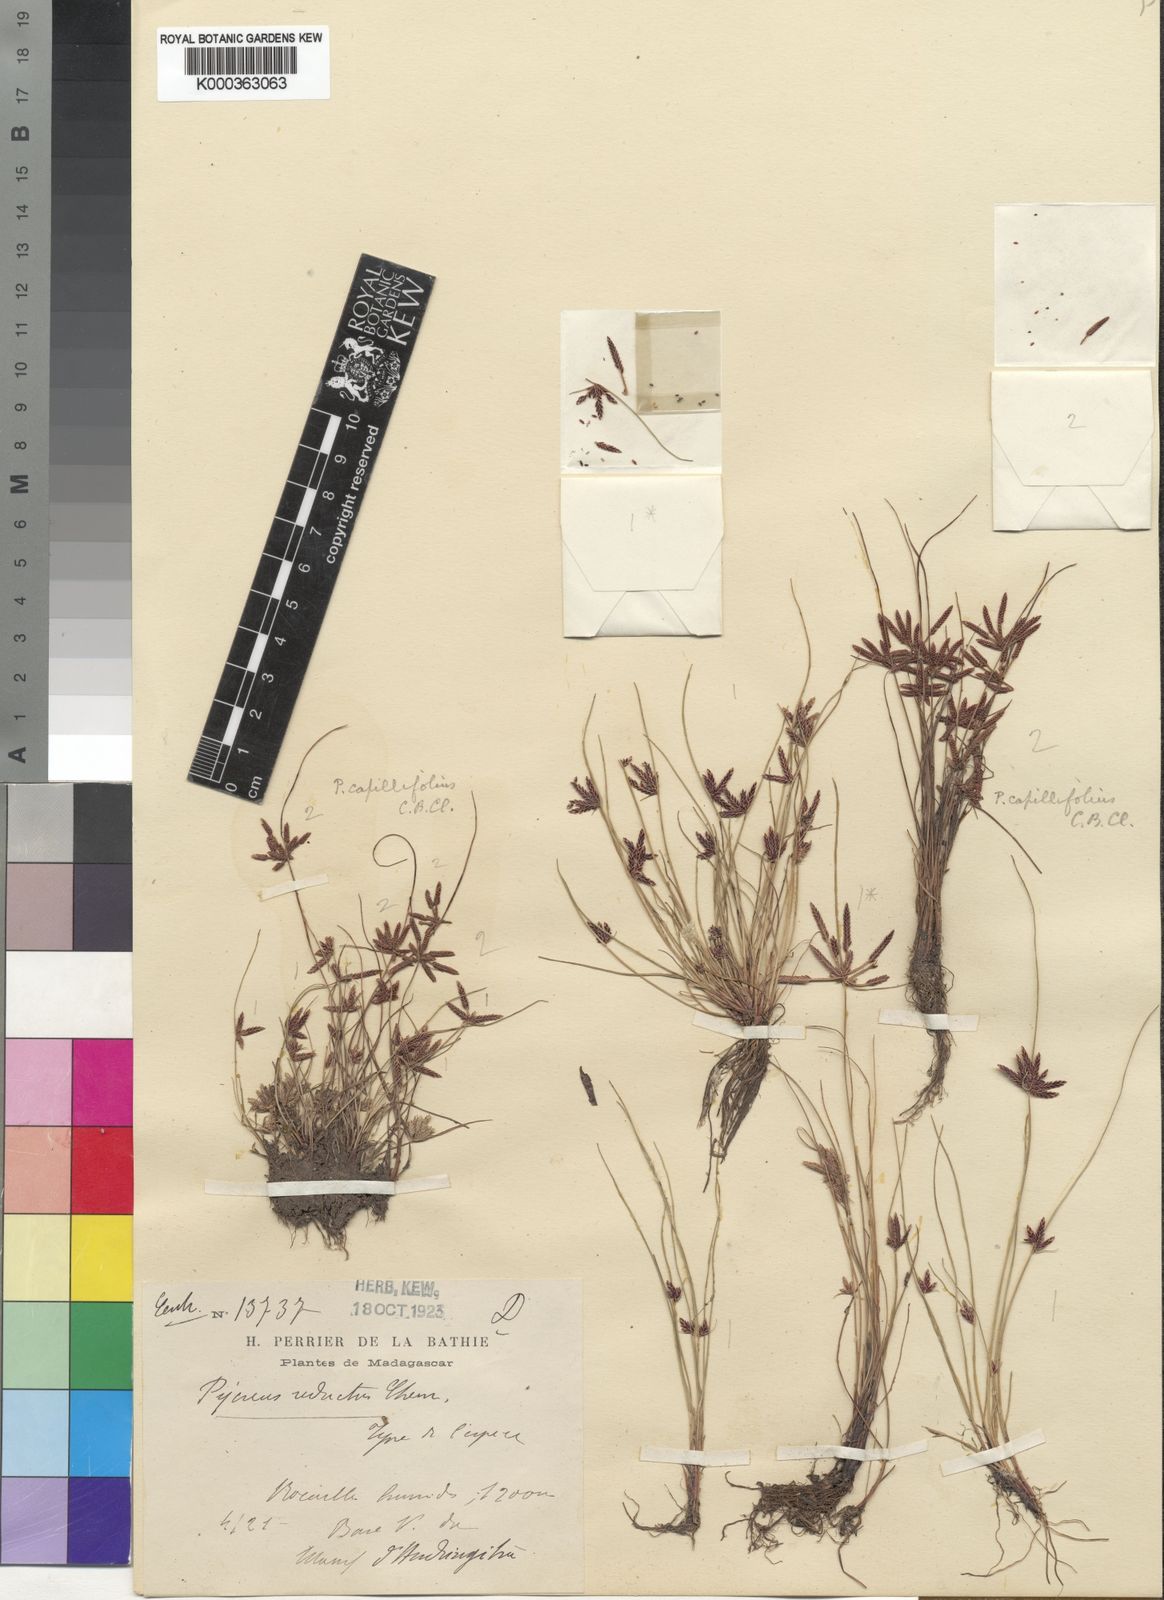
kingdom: Plantae
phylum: Tracheophyta
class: Liliopsida
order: Poales
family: Cyperaceae
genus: Cyperus
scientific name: Cyperus flavidus
